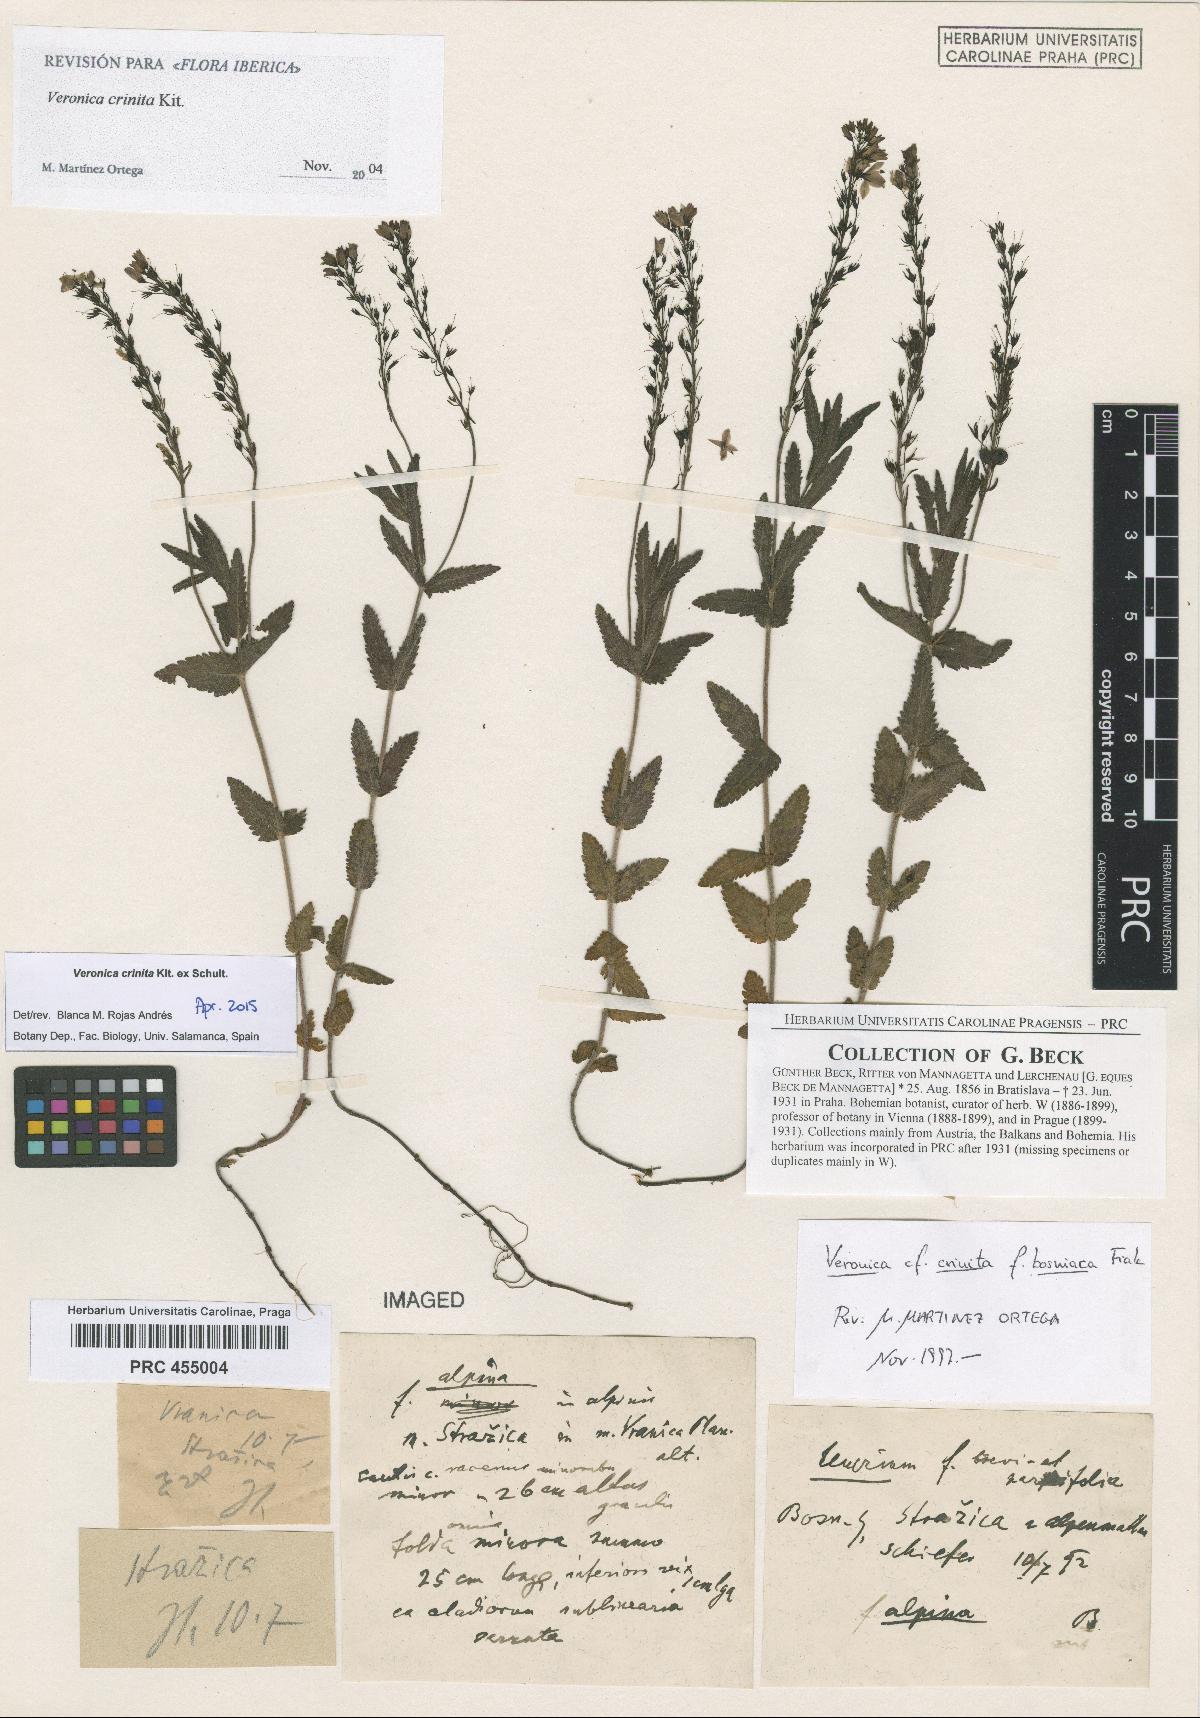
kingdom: Plantae
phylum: Tracheophyta
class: Magnoliopsida
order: Lamiales
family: Plantaginaceae
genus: Veronica
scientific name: Veronica teucrium
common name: Large speedwell
